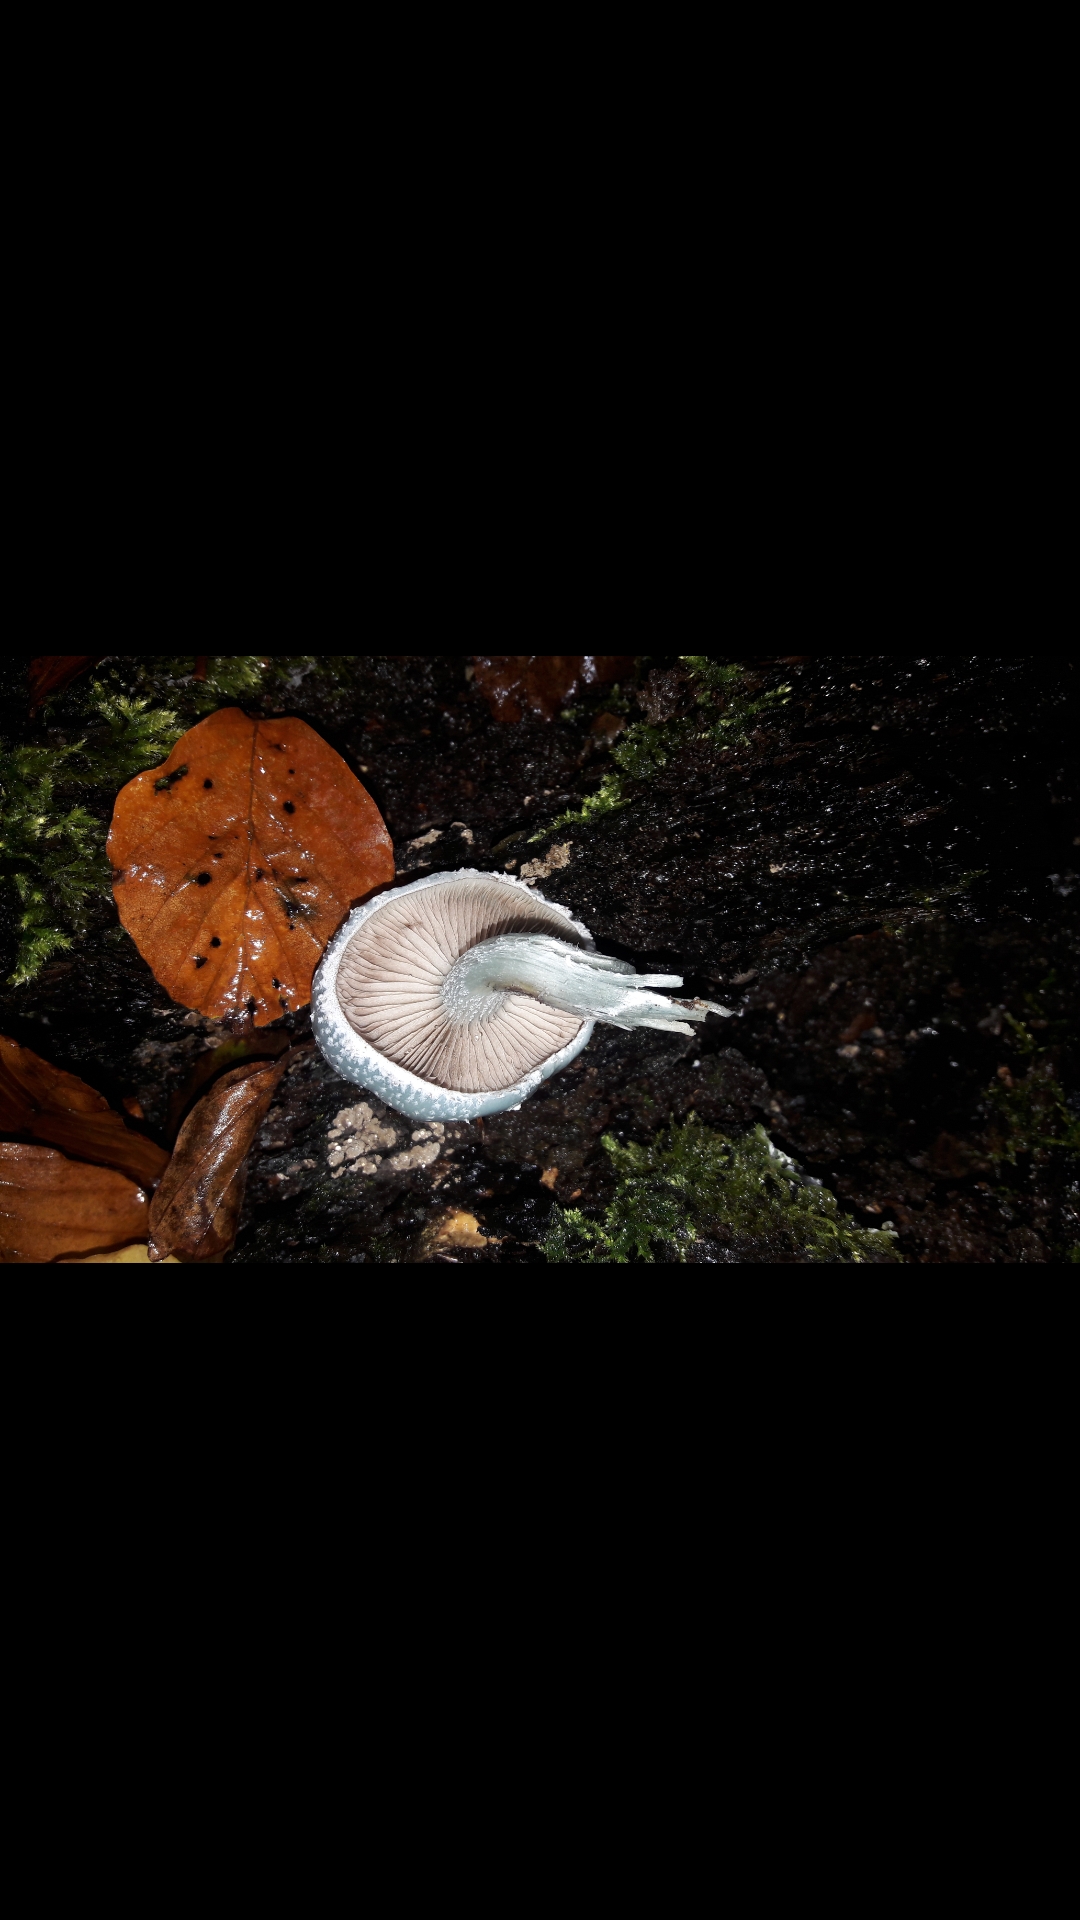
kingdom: Fungi
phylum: Basidiomycota
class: Agaricomycetes
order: Agaricales
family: Strophariaceae
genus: Stropharia
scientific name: Stropharia cyanea
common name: blågrøn bredblad
